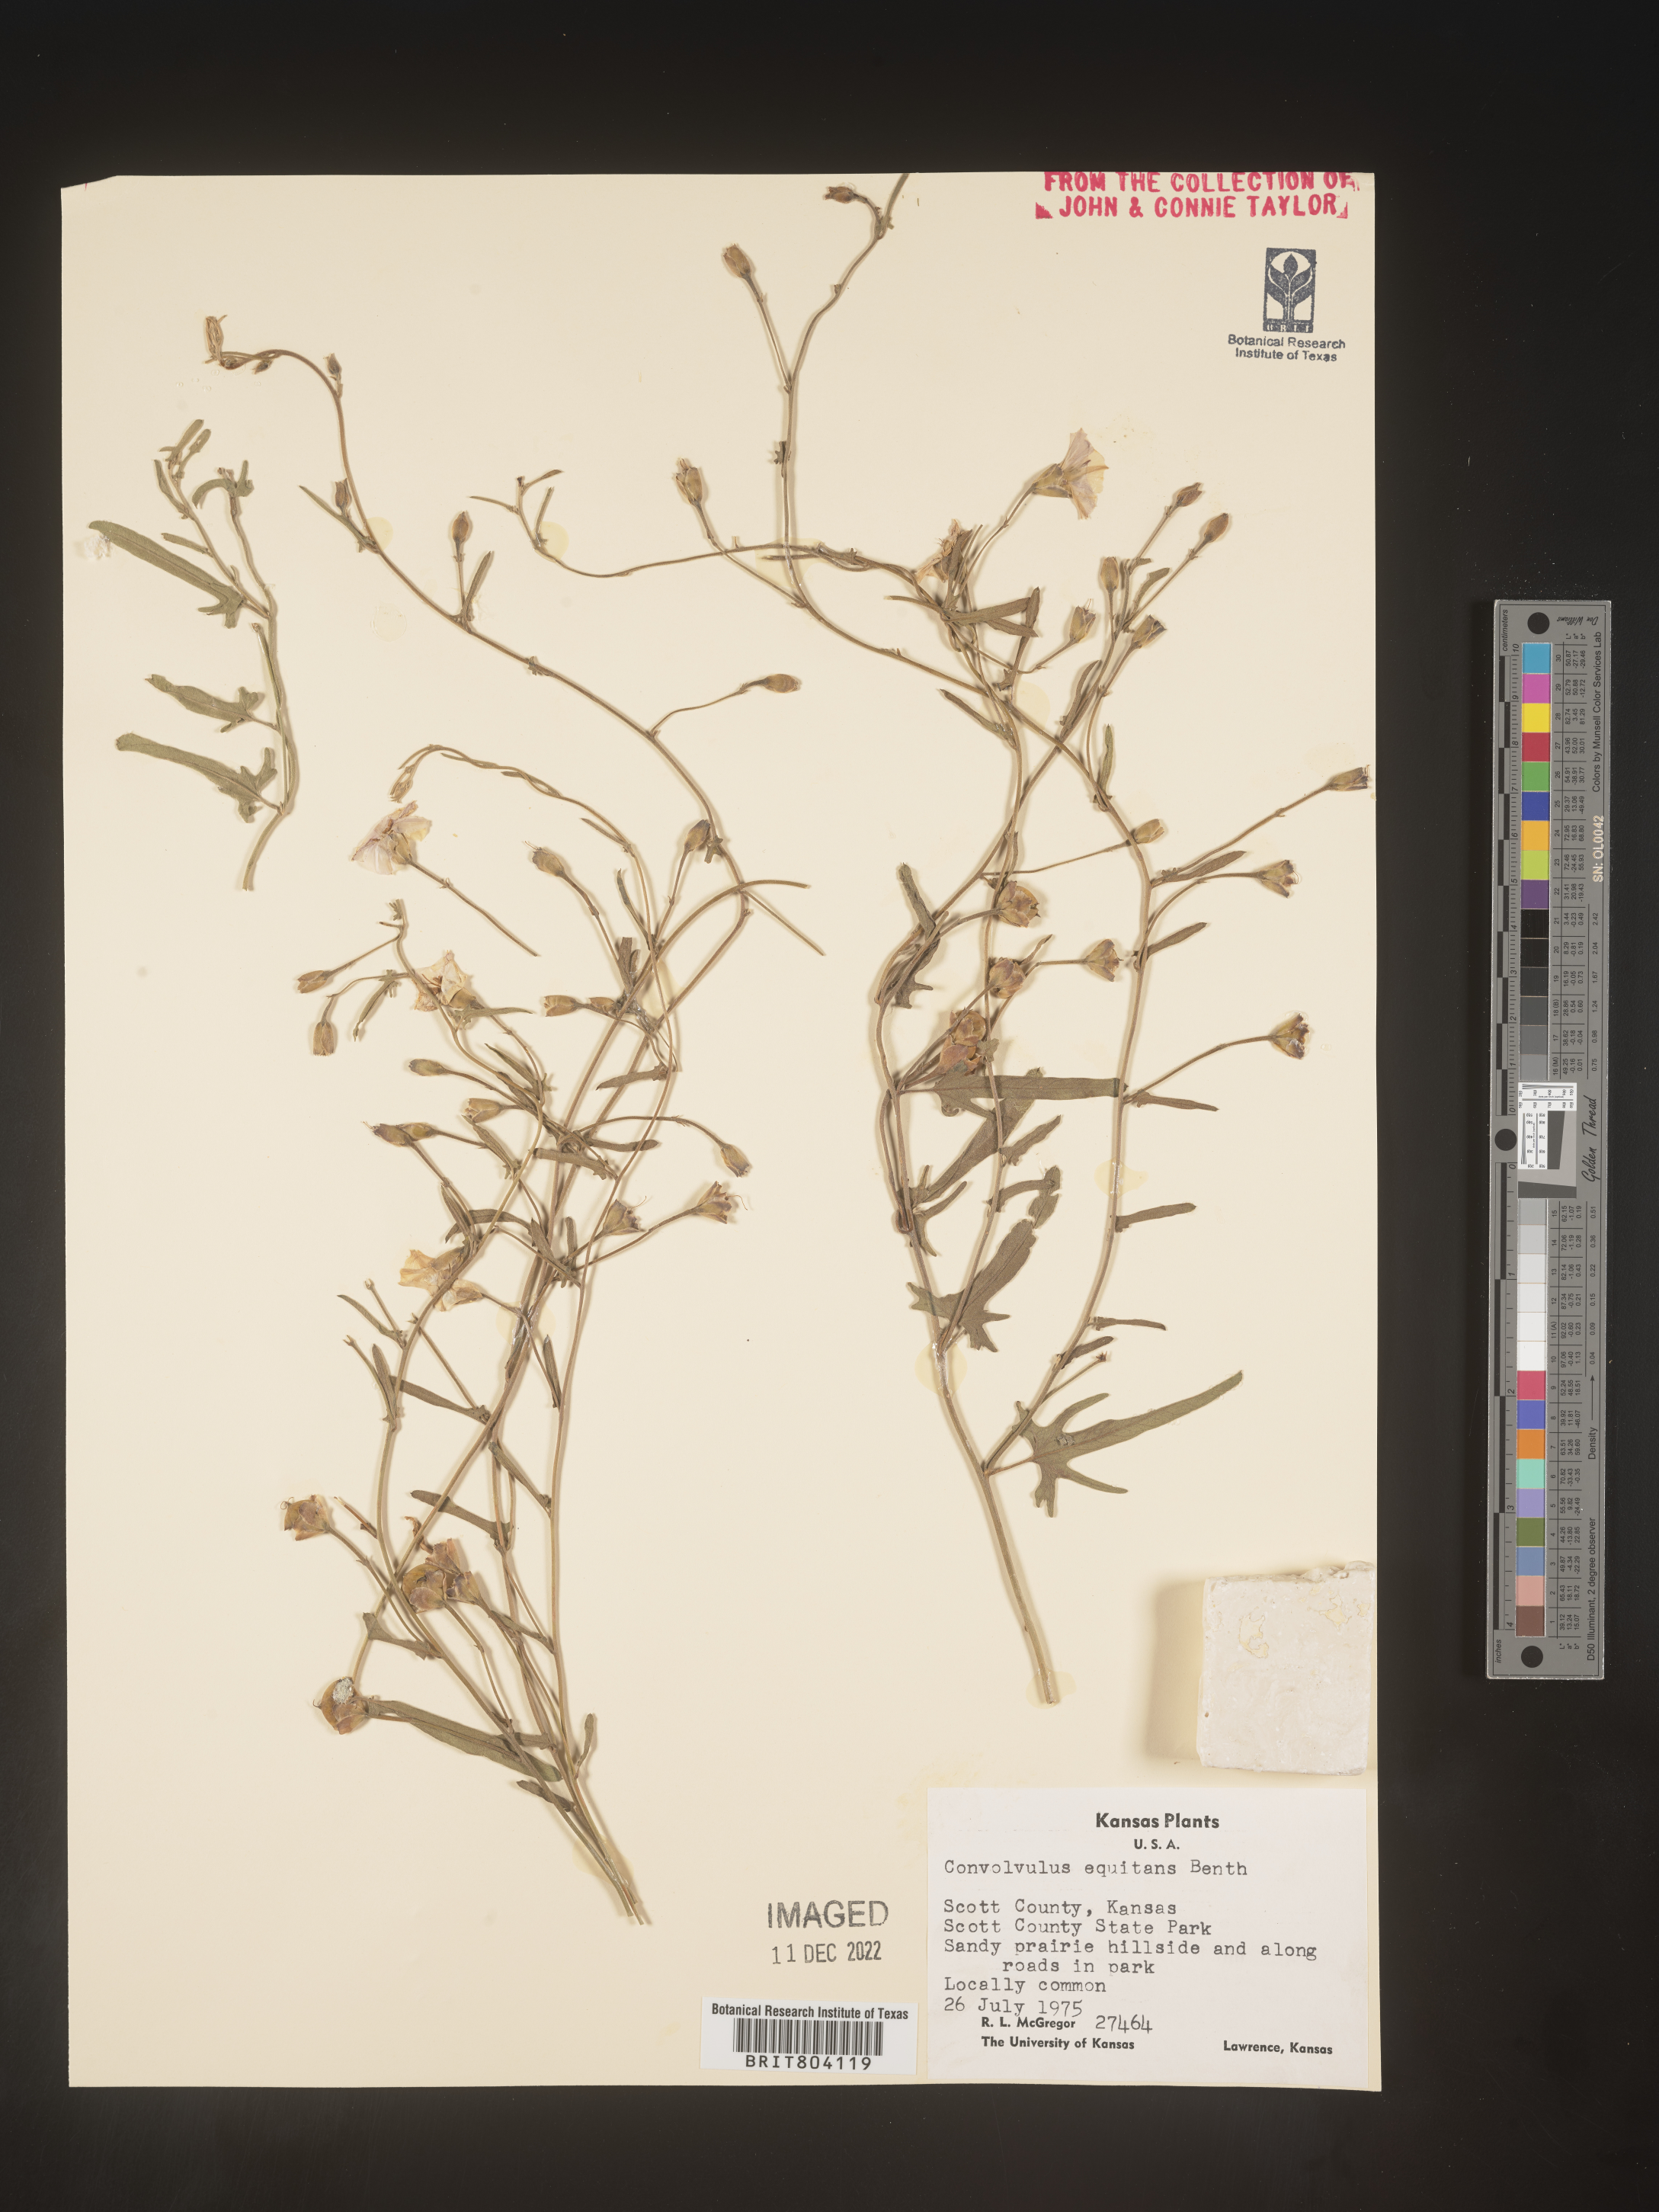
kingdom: Plantae
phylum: Tracheophyta
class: Magnoliopsida
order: Solanales
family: Convolvulaceae
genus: Convolvulus
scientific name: Convolvulus equitans
